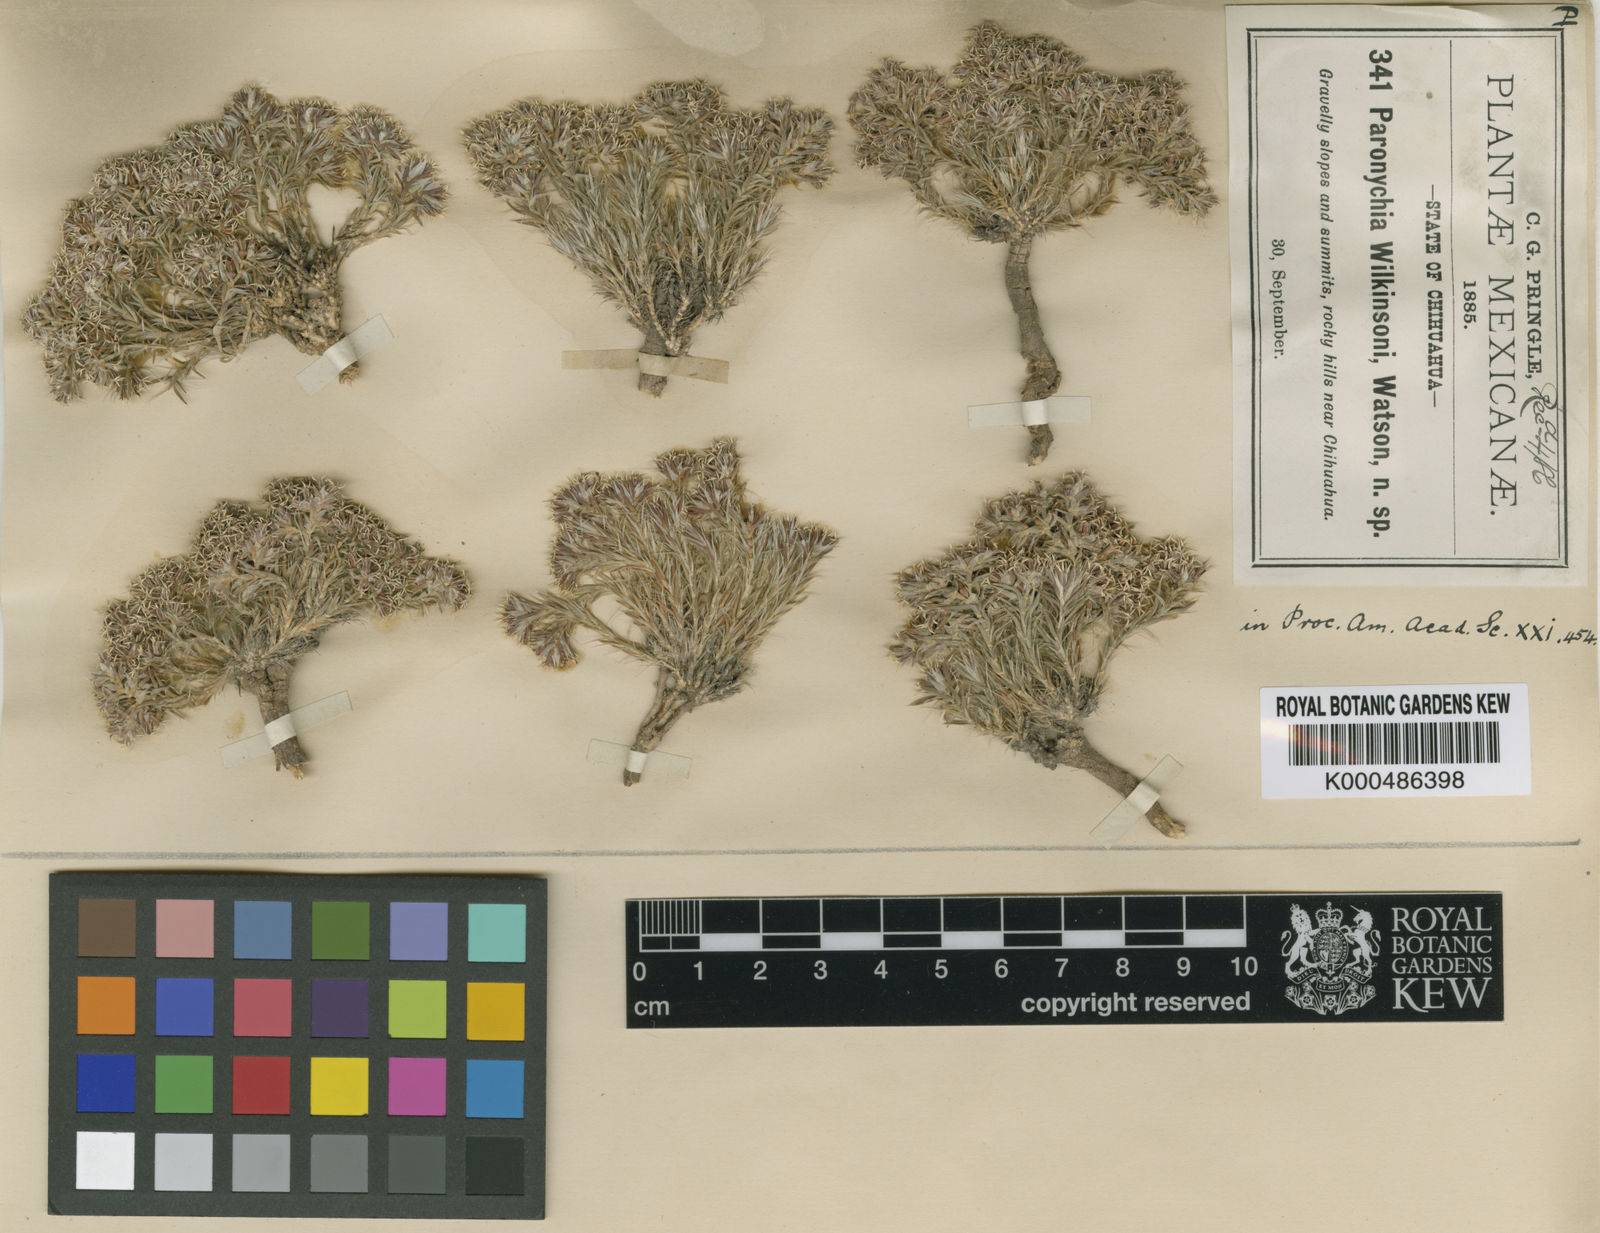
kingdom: Plantae
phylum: Tracheophyta
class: Magnoliopsida
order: Caryophyllales
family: Caryophyllaceae
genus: Paronychia
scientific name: Paronychia wilkinsonii
